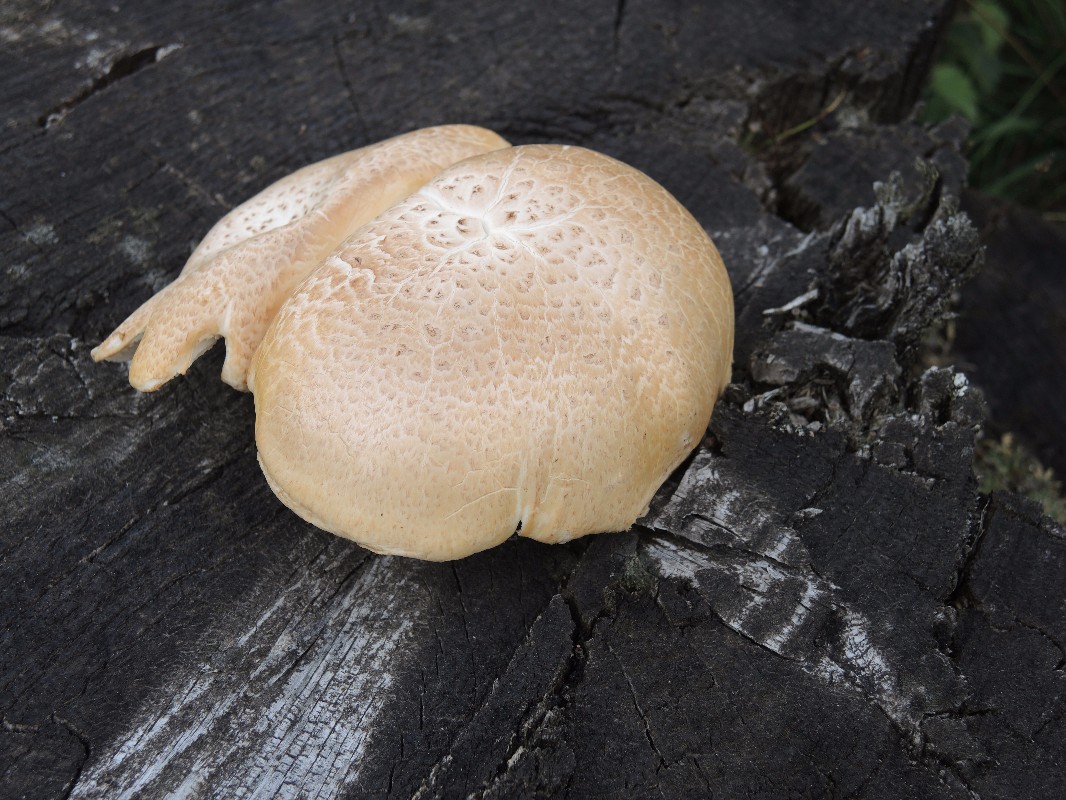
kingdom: Fungi
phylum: Basidiomycota
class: Agaricomycetes
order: Gloeophyllales
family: Gloeophyllaceae
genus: Neolentinus
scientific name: Neolentinus lepideus
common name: skællet sejhat
